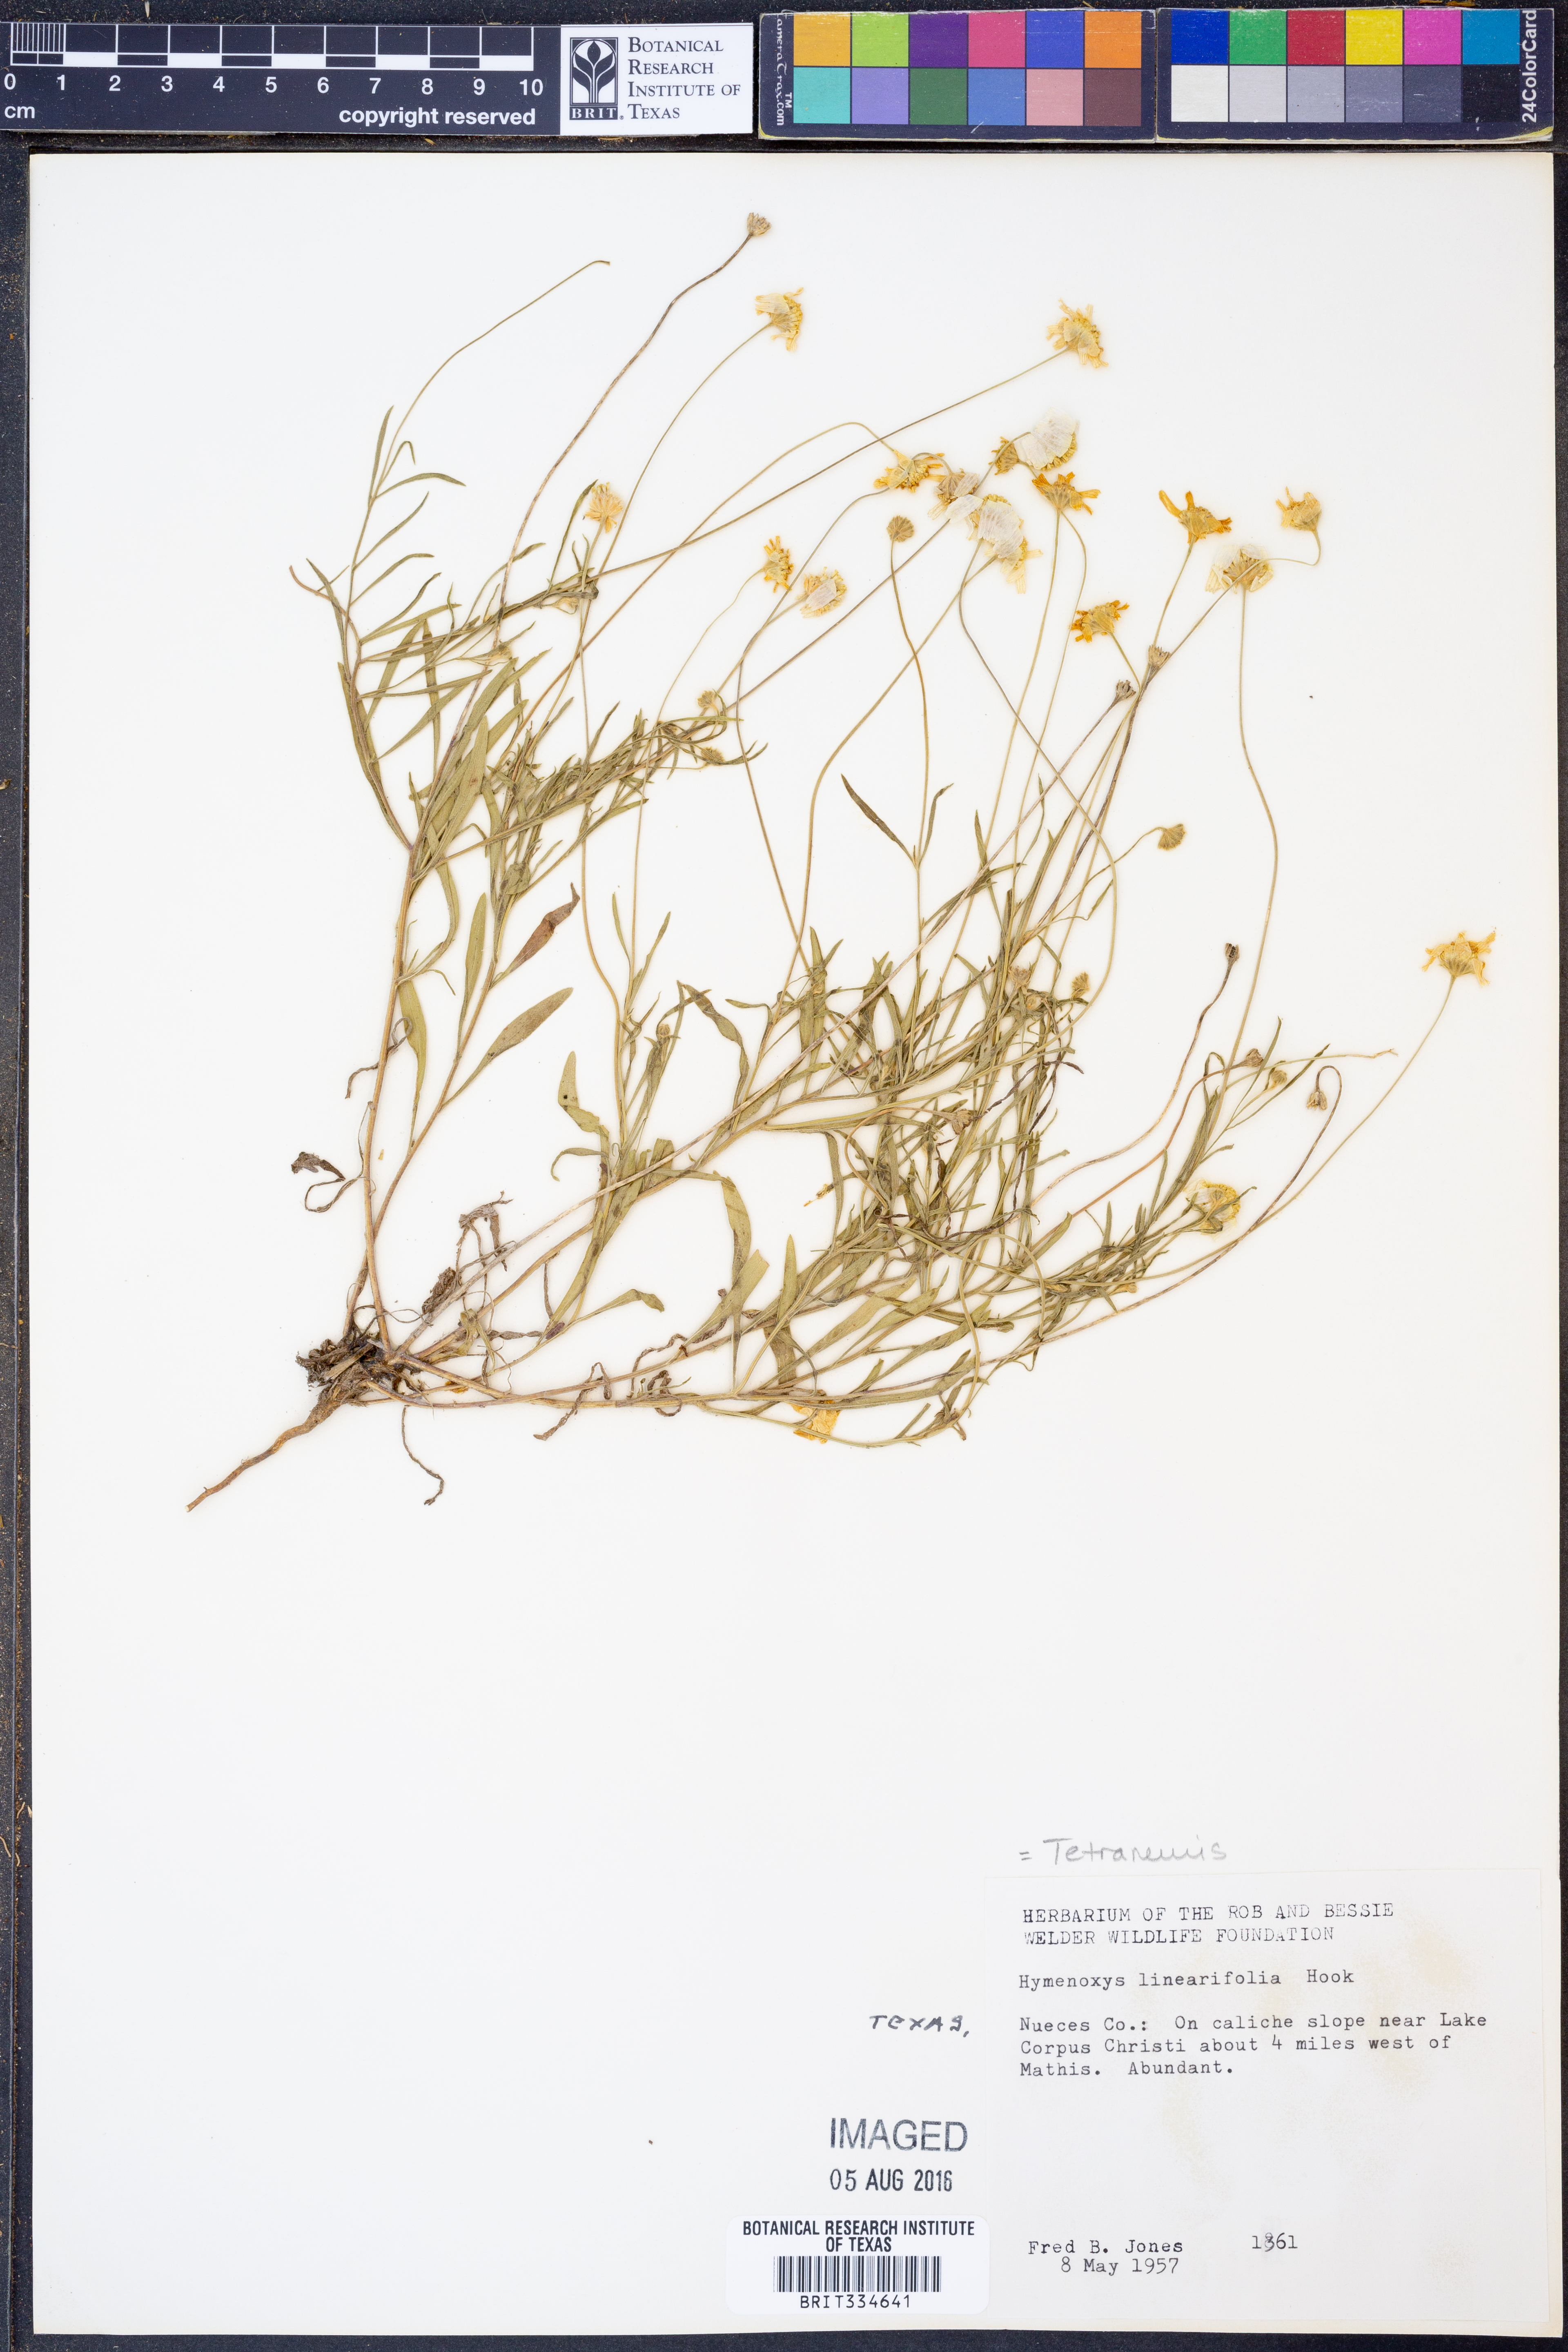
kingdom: Plantae
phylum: Tracheophyta
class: Magnoliopsida
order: Asterales
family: Asteraceae
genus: Tetraneuris
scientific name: Tetraneuris linearifolia
